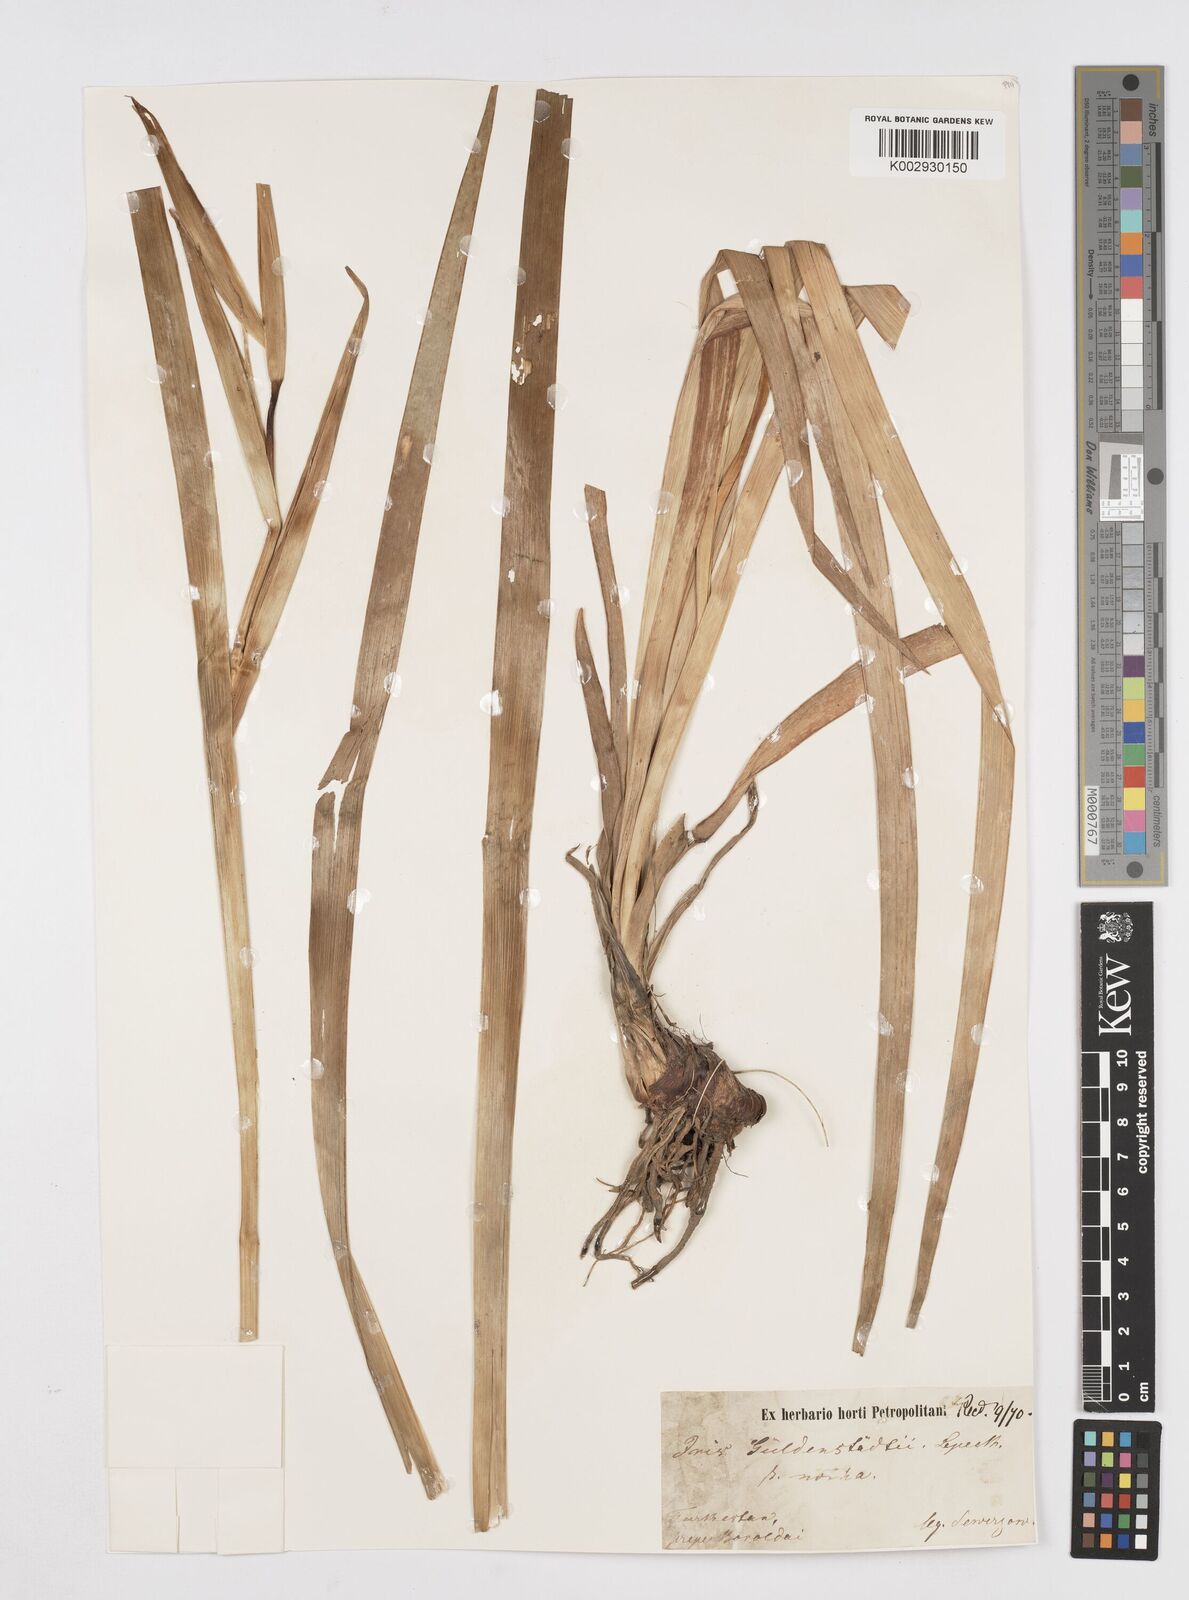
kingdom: Plantae
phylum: Tracheophyta
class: Liliopsida
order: Asparagales
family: Iridaceae
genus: Iris
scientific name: Iris spuria
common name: Blue iris
